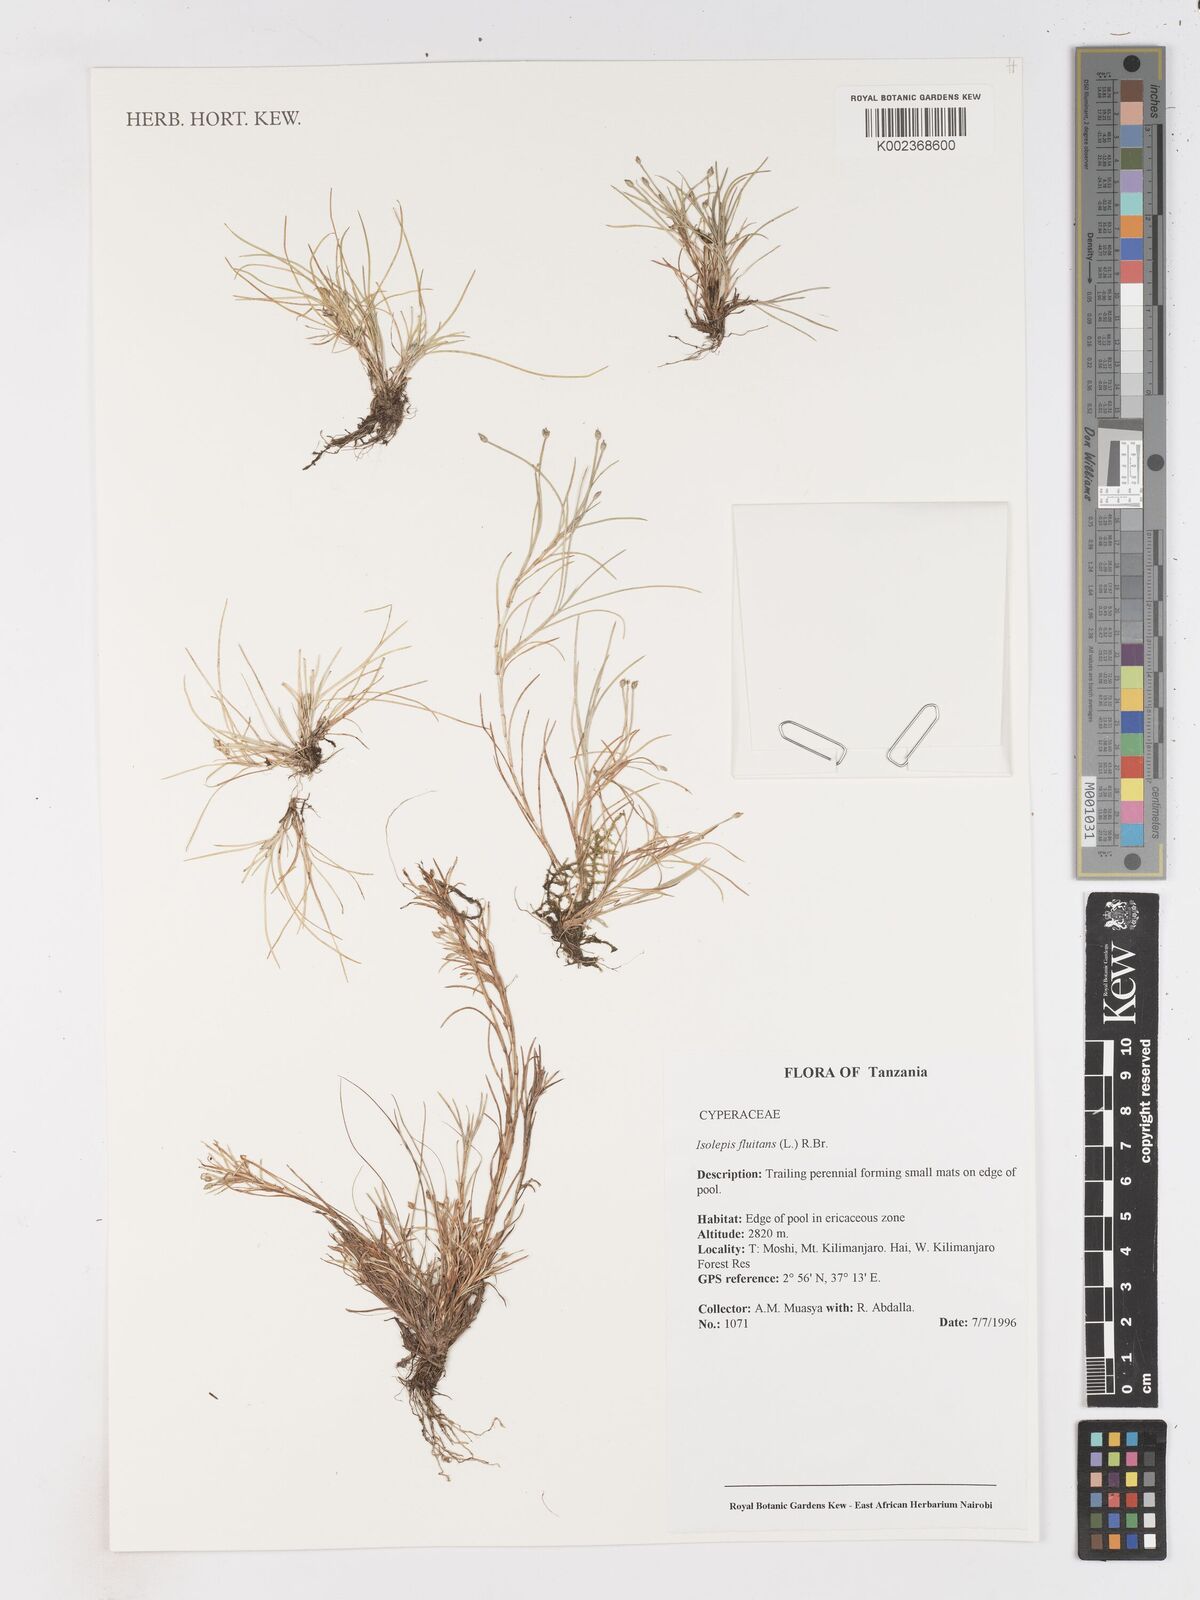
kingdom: Plantae
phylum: Tracheophyta
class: Liliopsida
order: Poales
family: Cyperaceae
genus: Isolepis
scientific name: Isolepis fluitans
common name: Floating club-rush
